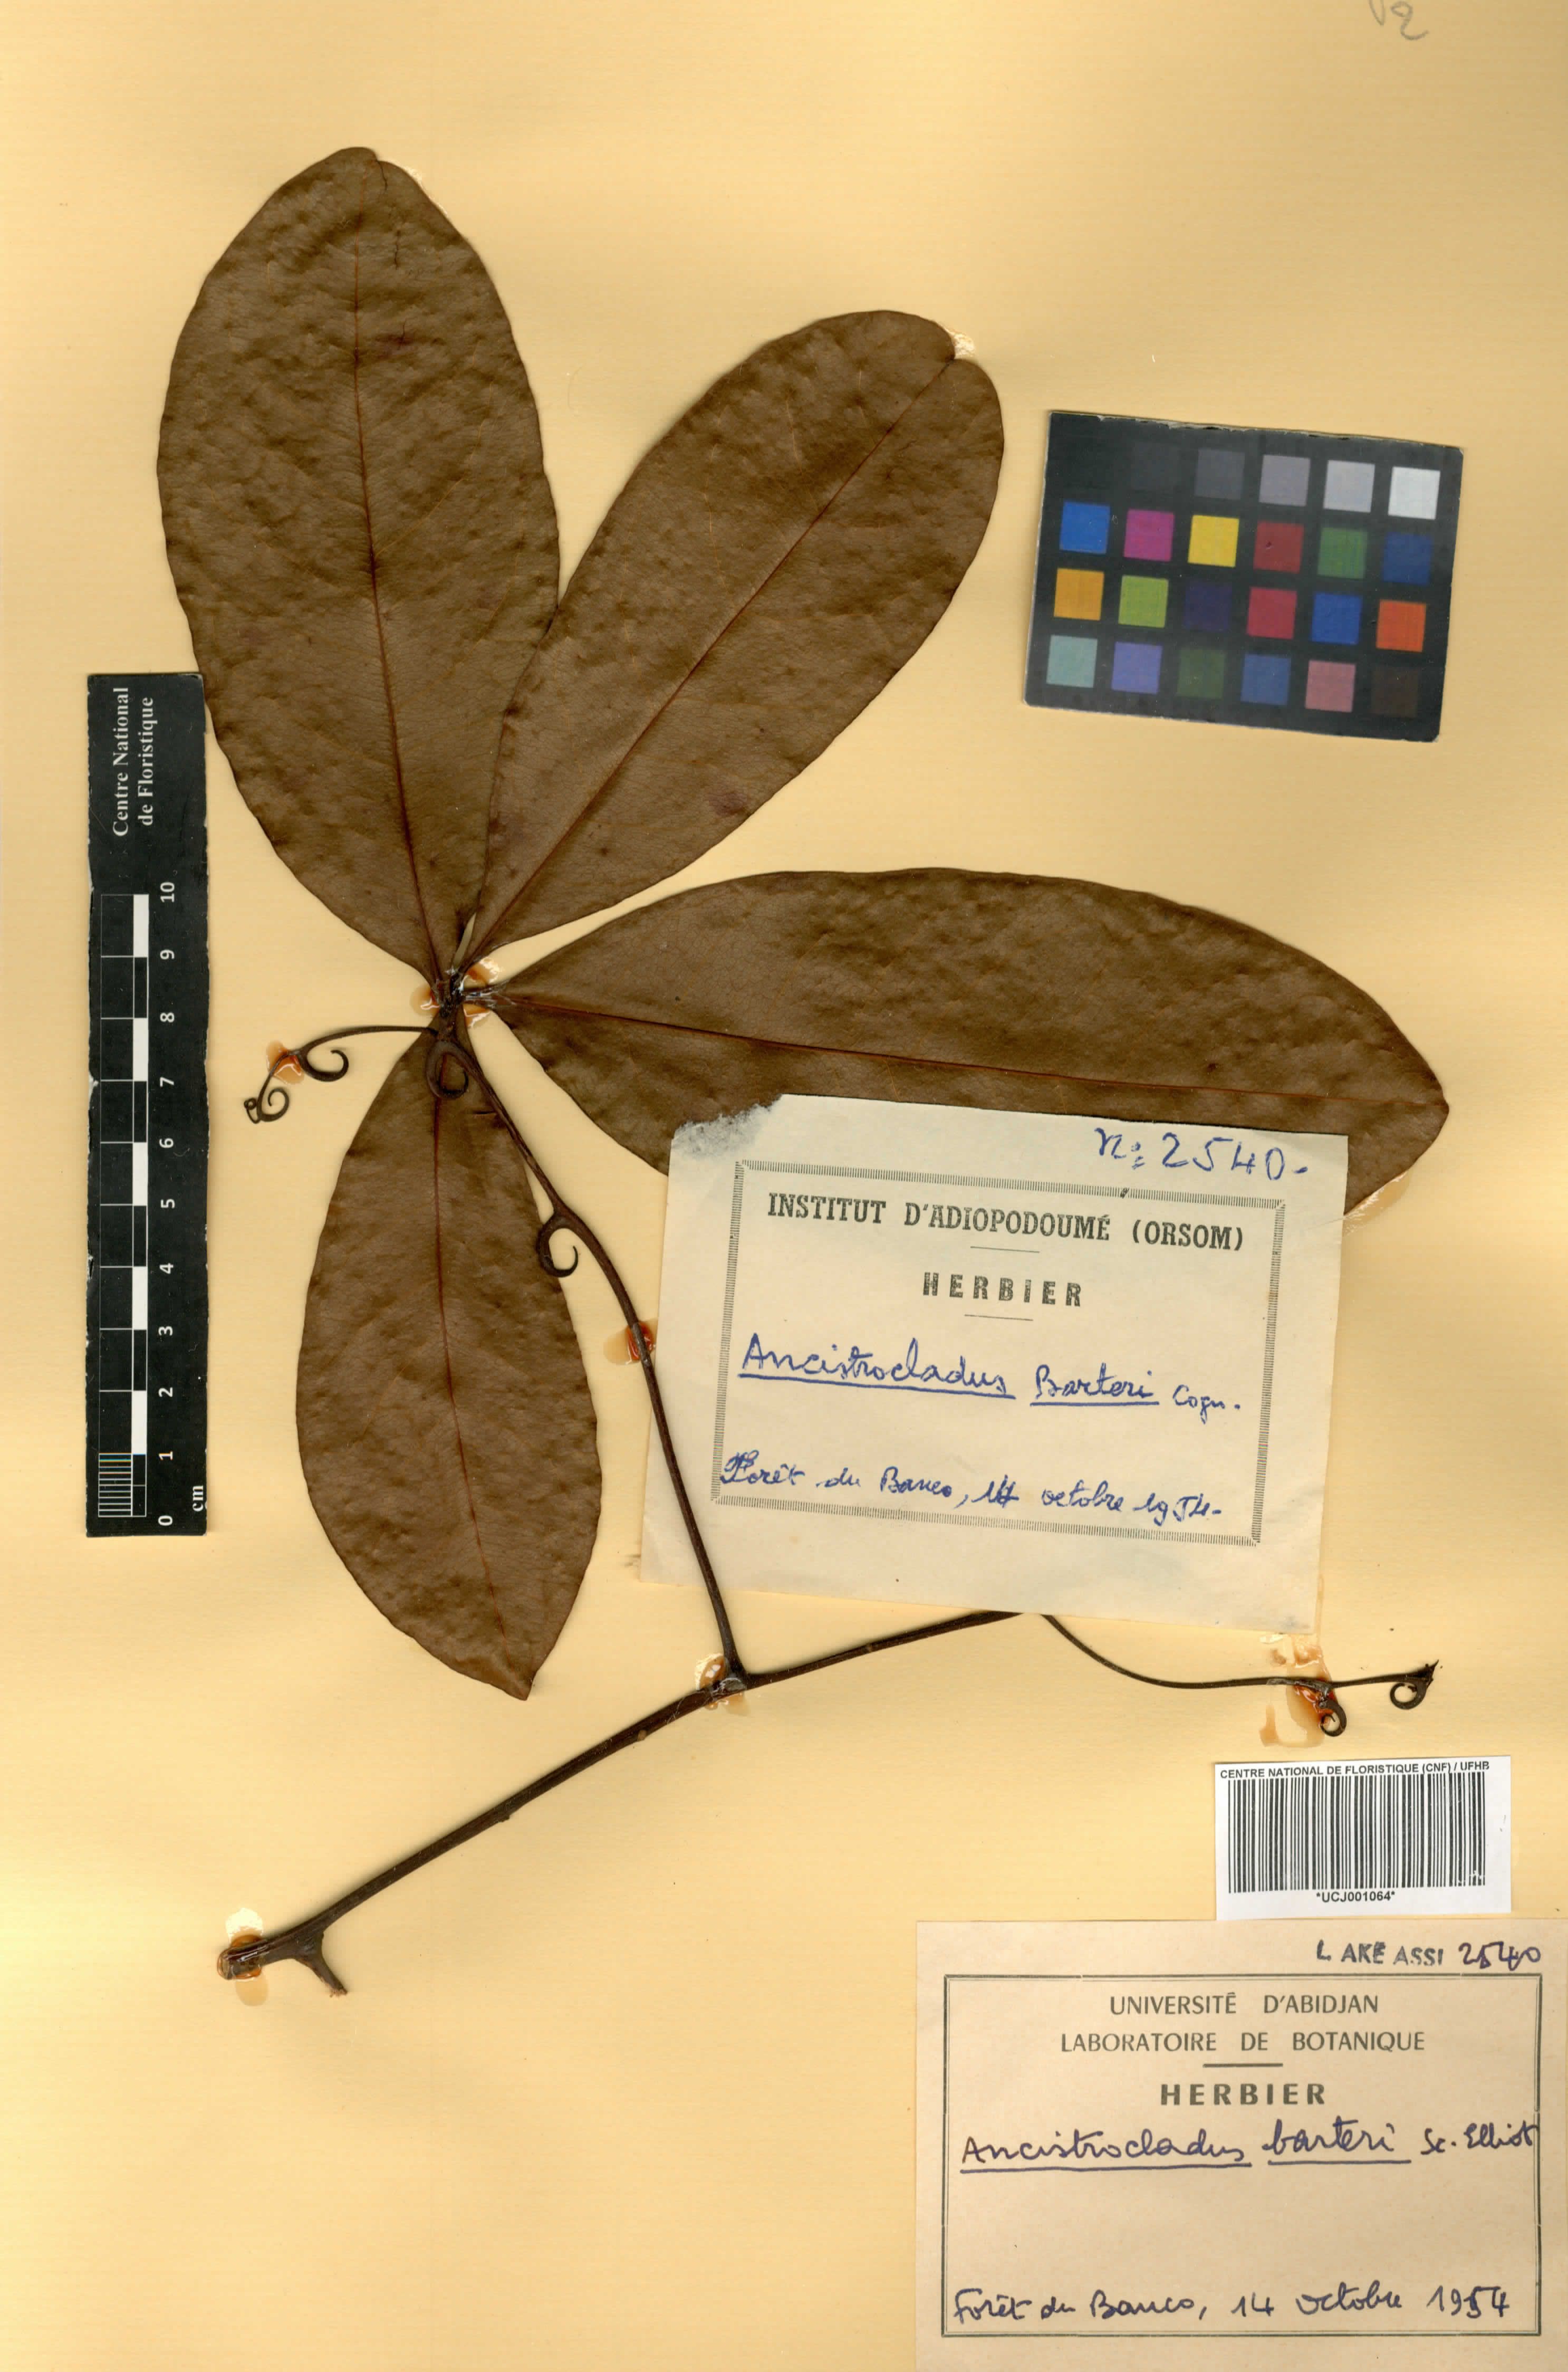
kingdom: Plantae
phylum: Tracheophyta
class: Magnoliopsida
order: Caryophyllales
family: Ancistrocladaceae
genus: Ancistrocladus
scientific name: Ancistrocladus barteri
